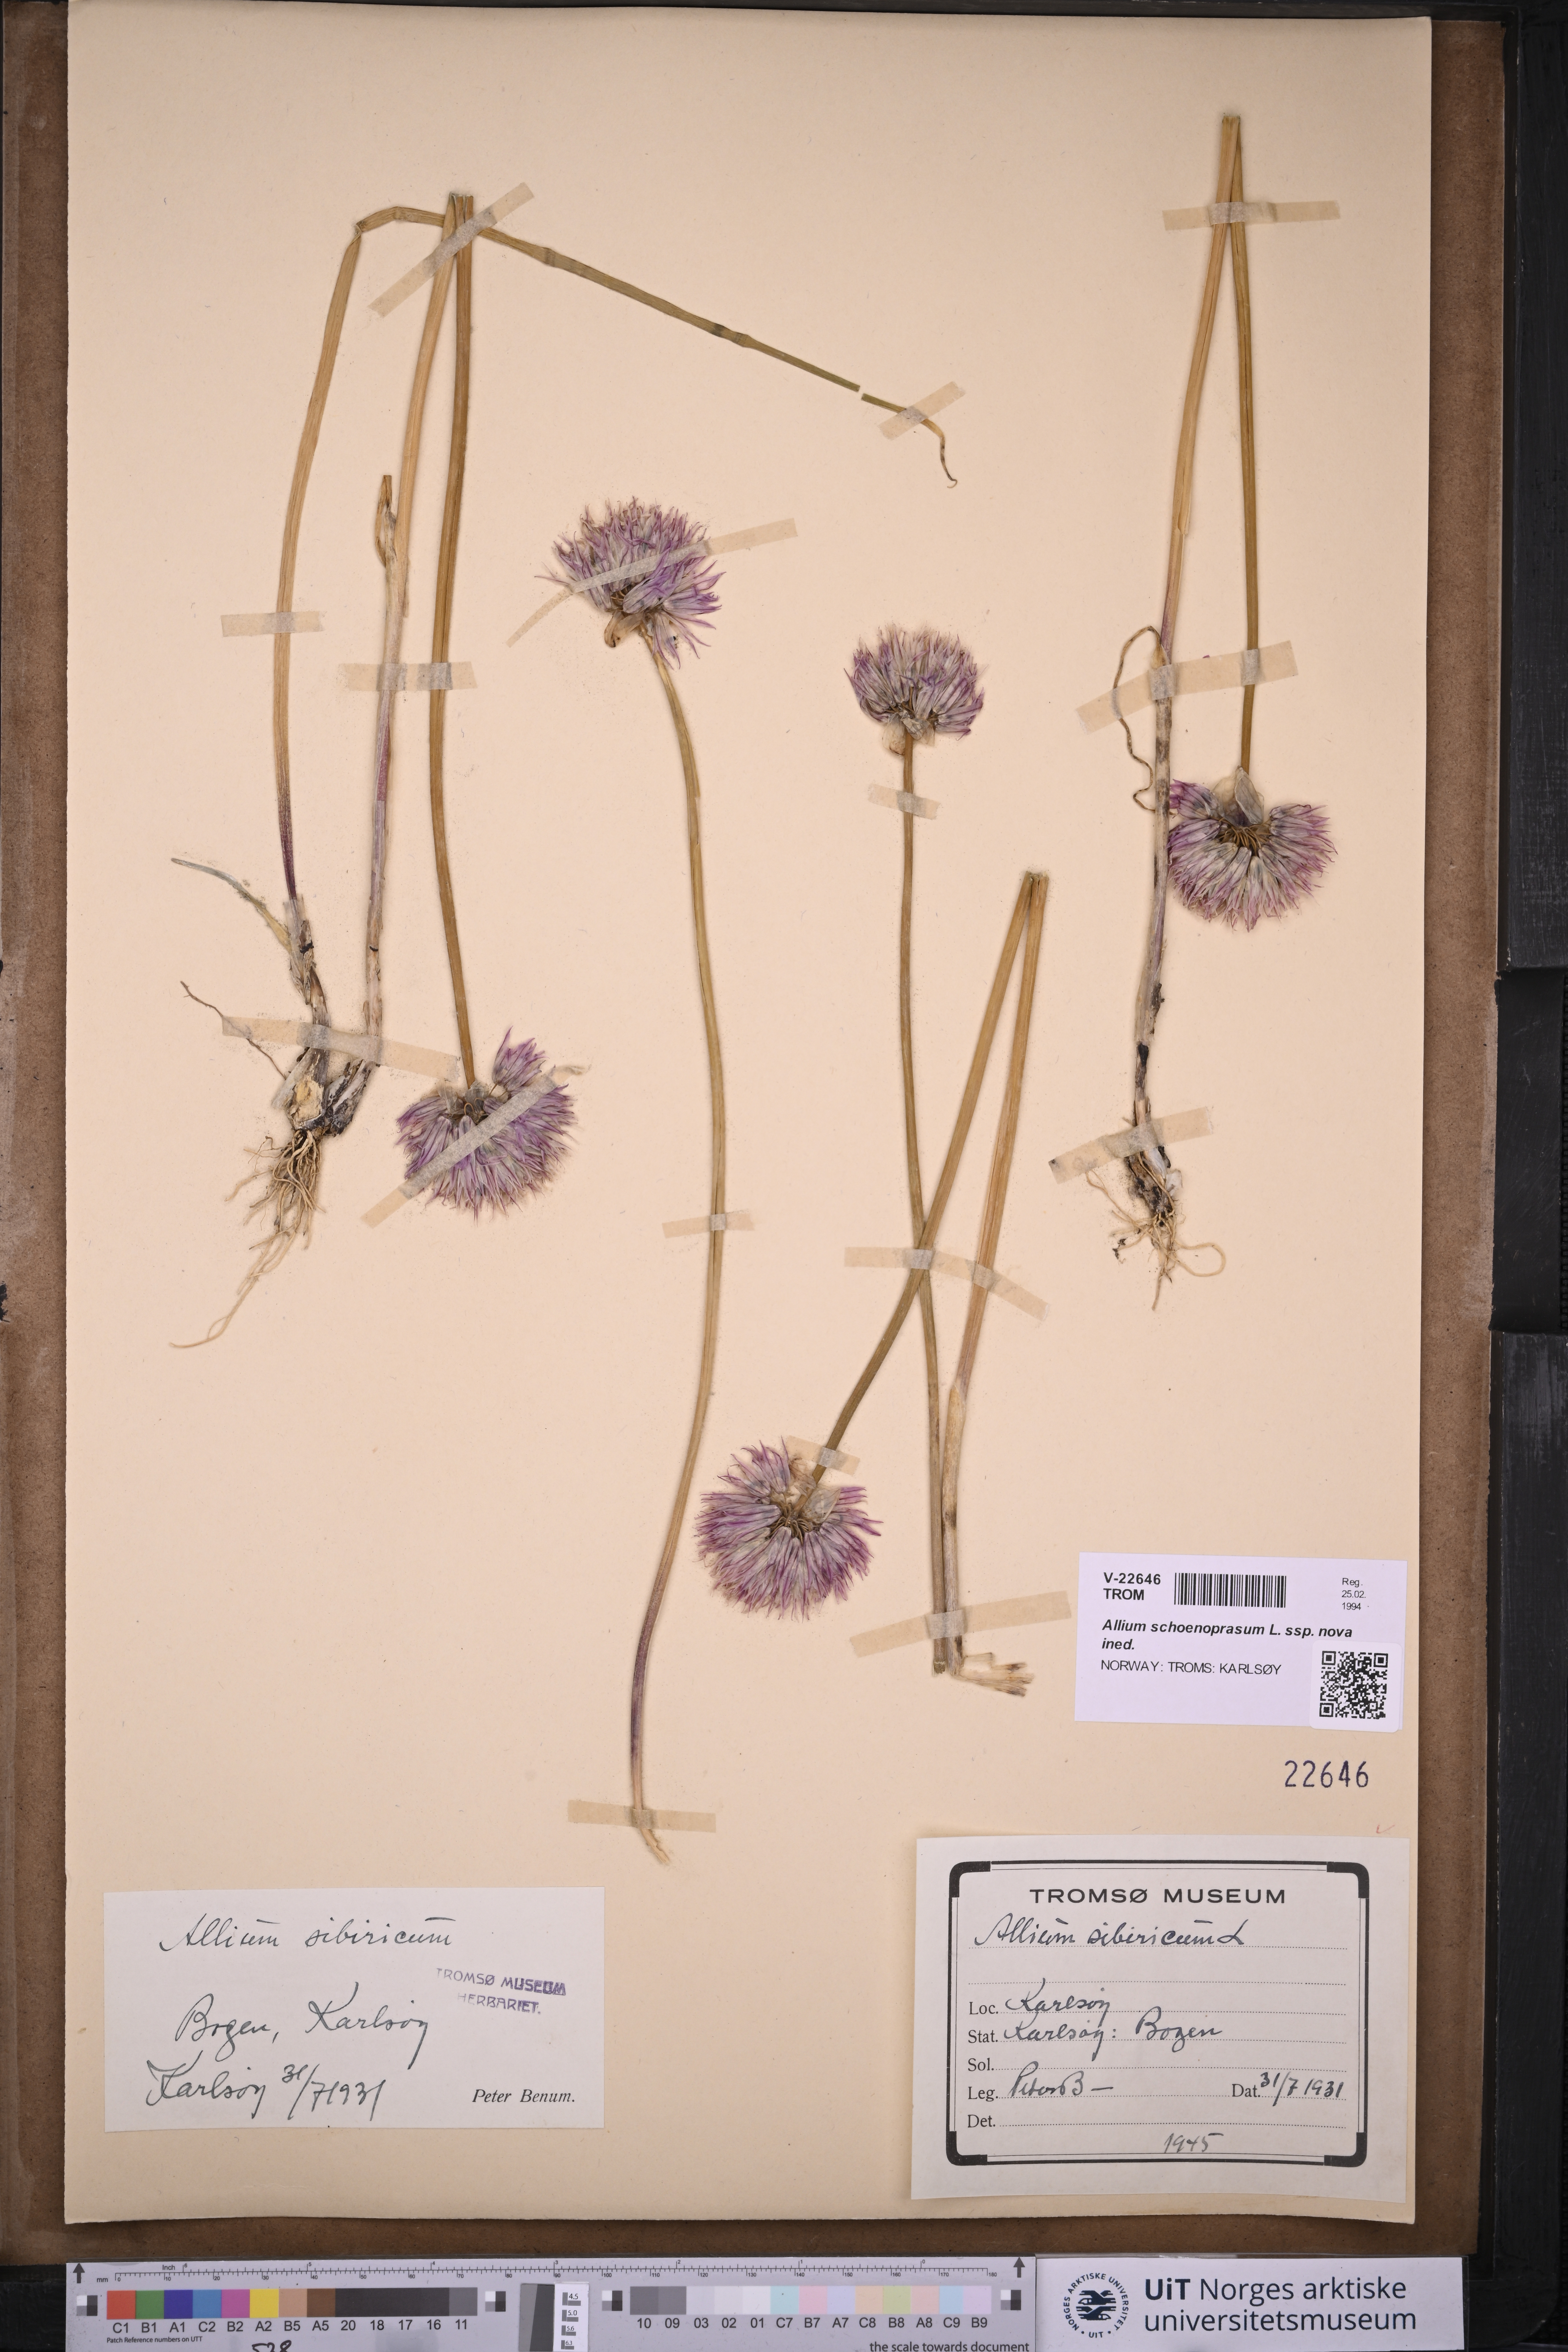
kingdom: Plantae
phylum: Tracheophyta
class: Liliopsida
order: Asparagales
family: Amaryllidaceae
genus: Allium
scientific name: Allium schoenoprasum
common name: Chives
